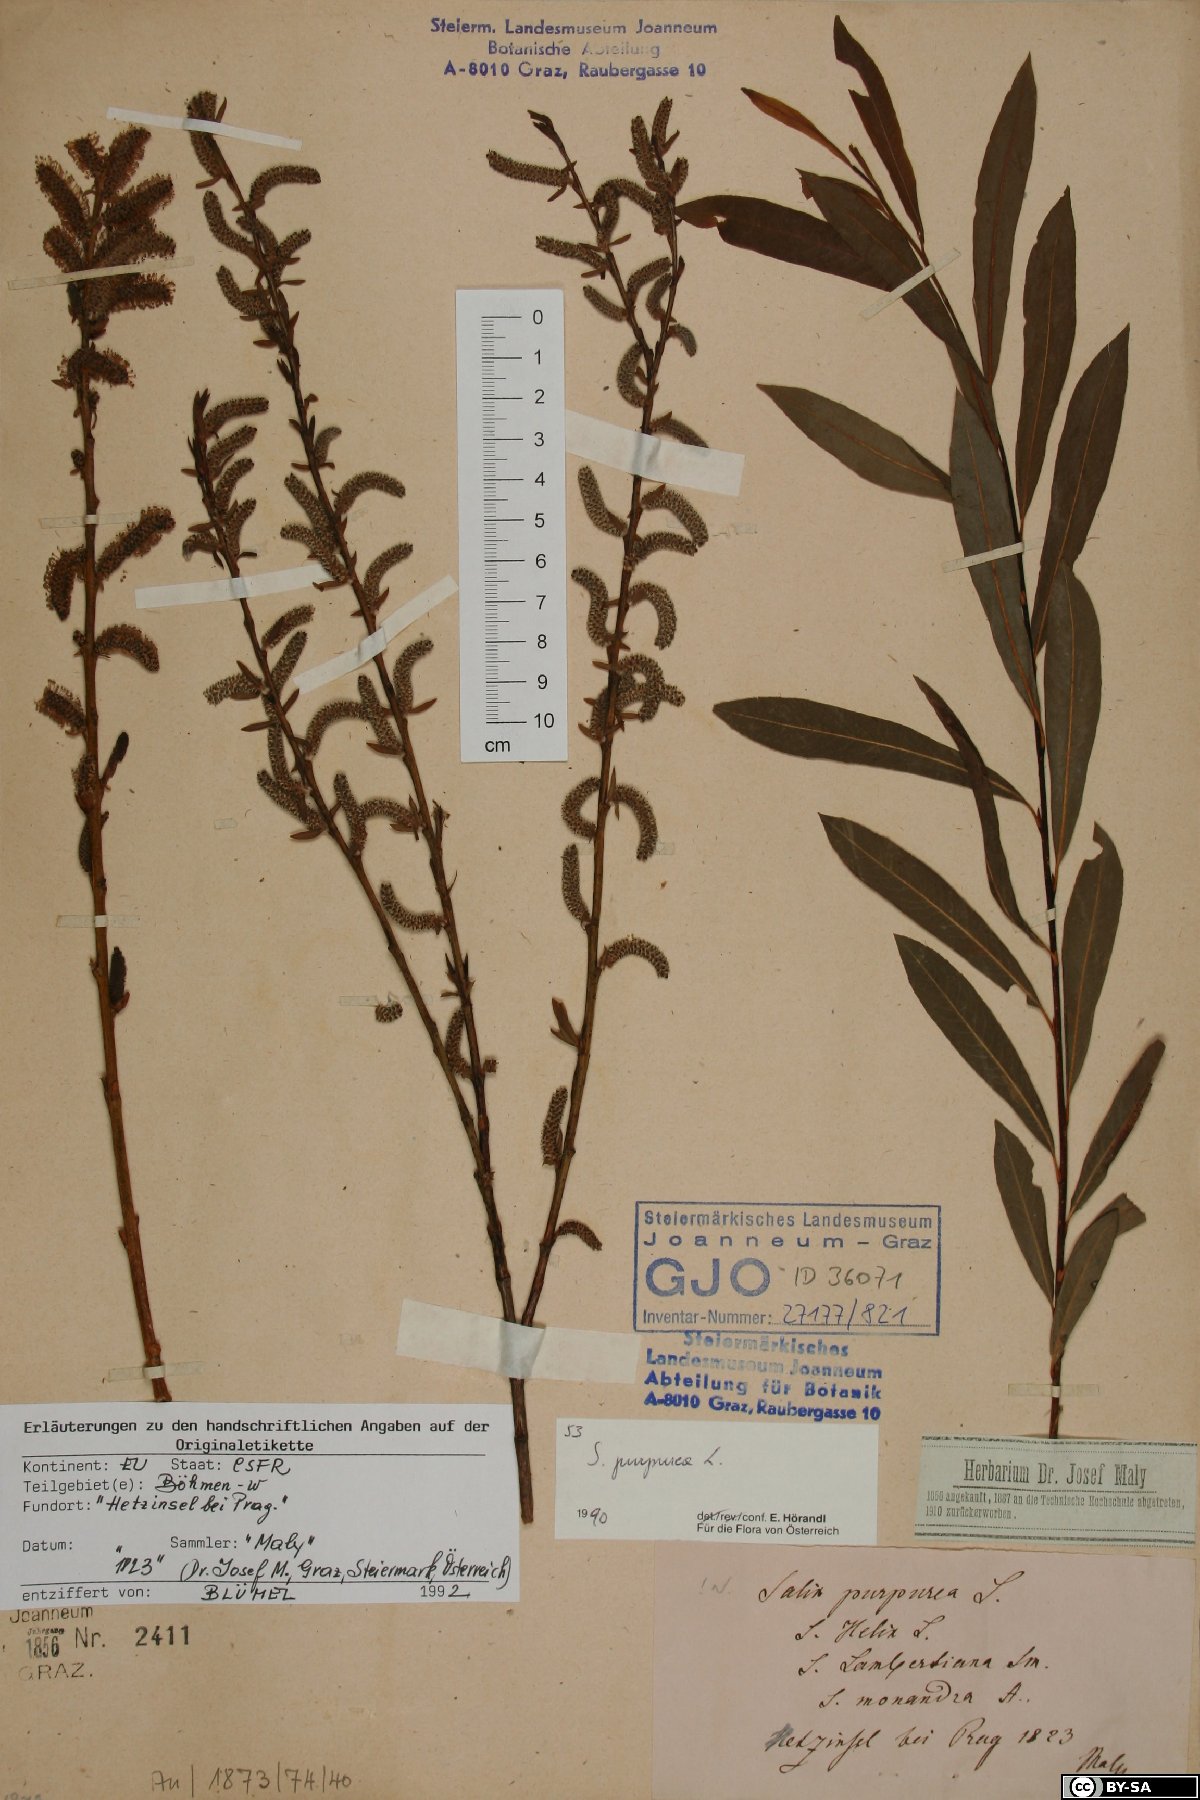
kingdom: Plantae
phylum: Tracheophyta
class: Magnoliopsida
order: Malpighiales
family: Salicaceae
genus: Salix
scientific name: Salix purpurea
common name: Purple willow
